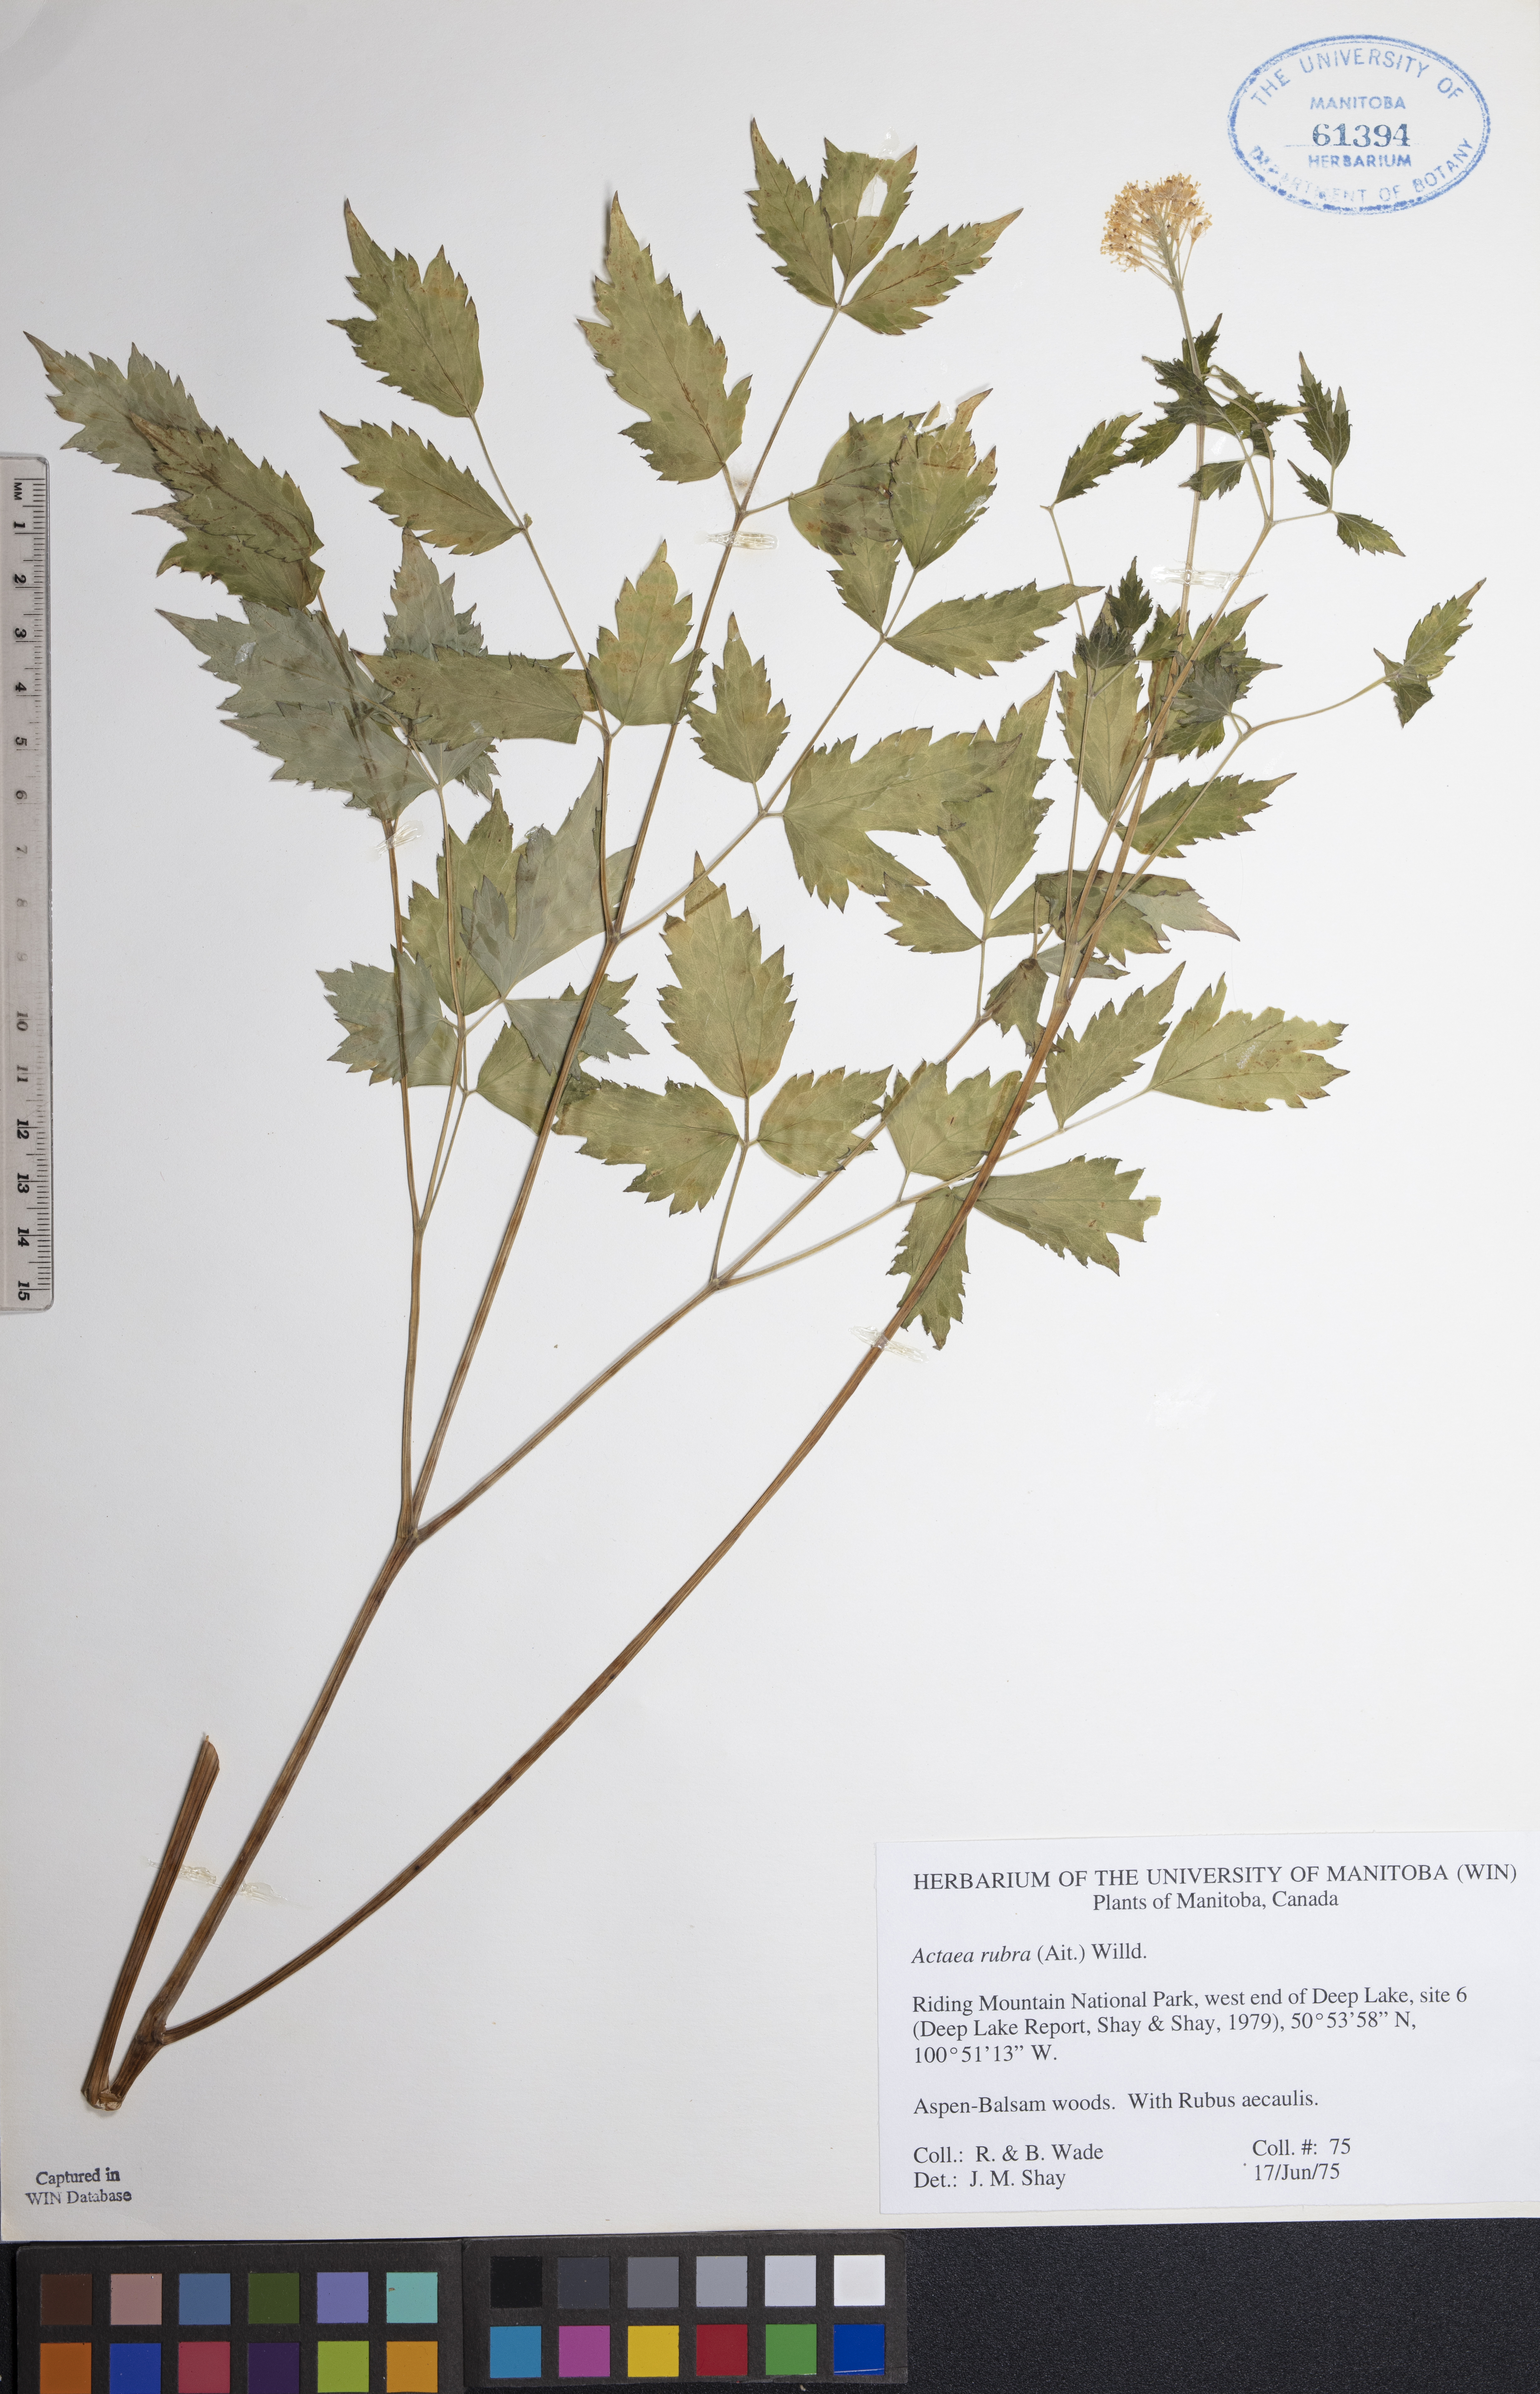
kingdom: Plantae
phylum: Tracheophyta
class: Magnoliopsida
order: Ranunculales
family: Ranunculaceae
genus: Actaea
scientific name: Actaea rubra
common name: Red baneberry
